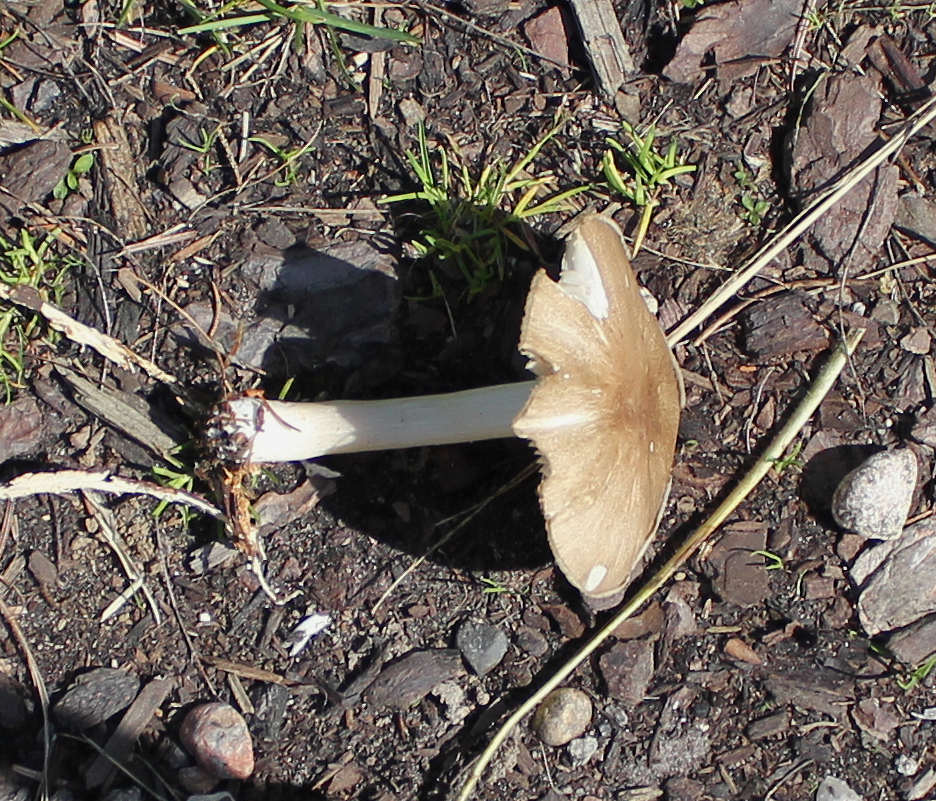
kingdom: Fungi
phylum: Basidiomycota
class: Agaricomycetes
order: Agaricales
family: Tricholomataceae
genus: Megacollybia
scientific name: Megacollybia platyphylla
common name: bredbladet væbnerhat
